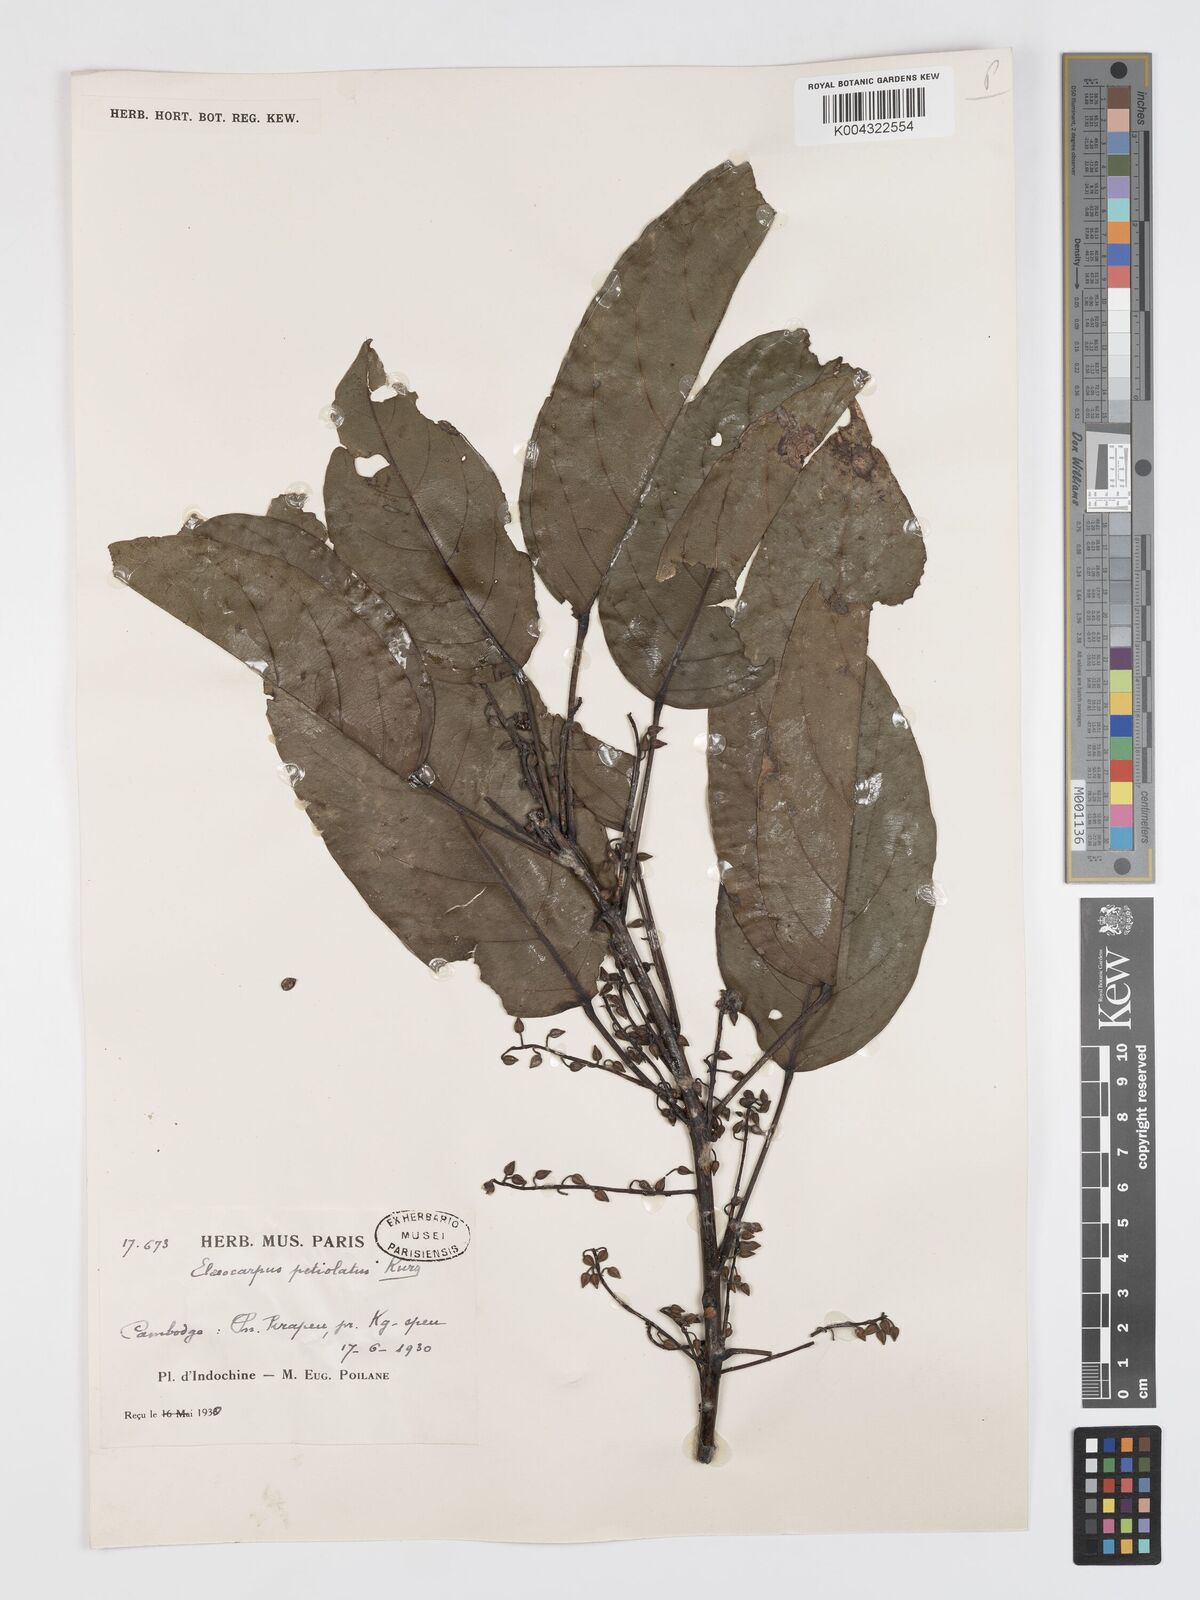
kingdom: Plantae
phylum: Tracheophyta
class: Magnoliopsida
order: Oxalidales
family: Elaeocarpaceae
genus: Elaeocarpus
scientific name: Elaeocarpus petiolatus
